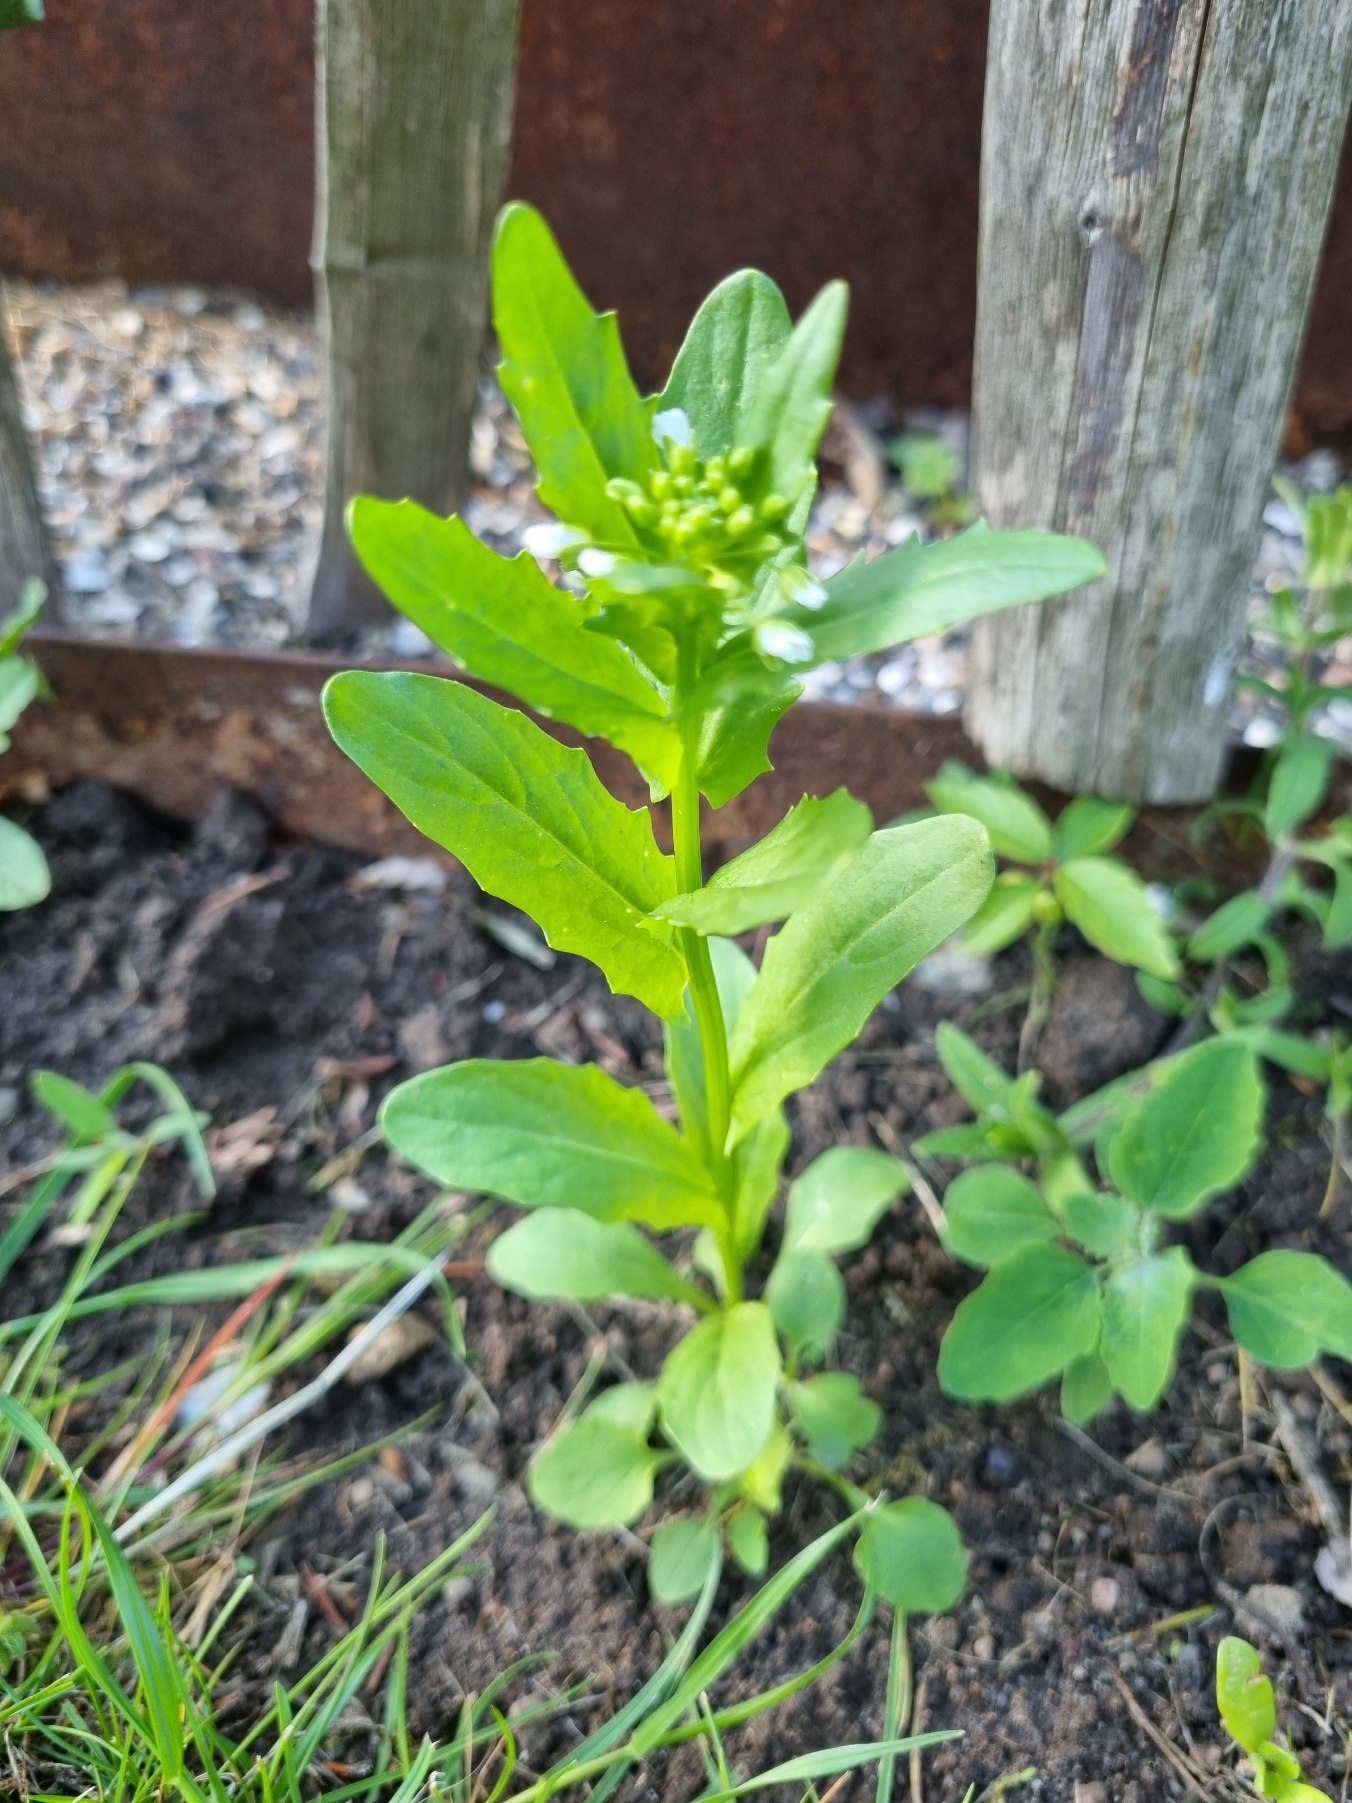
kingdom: Plantae
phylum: Tracheophyta
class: Magnoliopsida
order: Brassicales
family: Brassicaceae
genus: Thlaspi
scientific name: Thlaspi arvense
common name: Almindelig pengeurt
